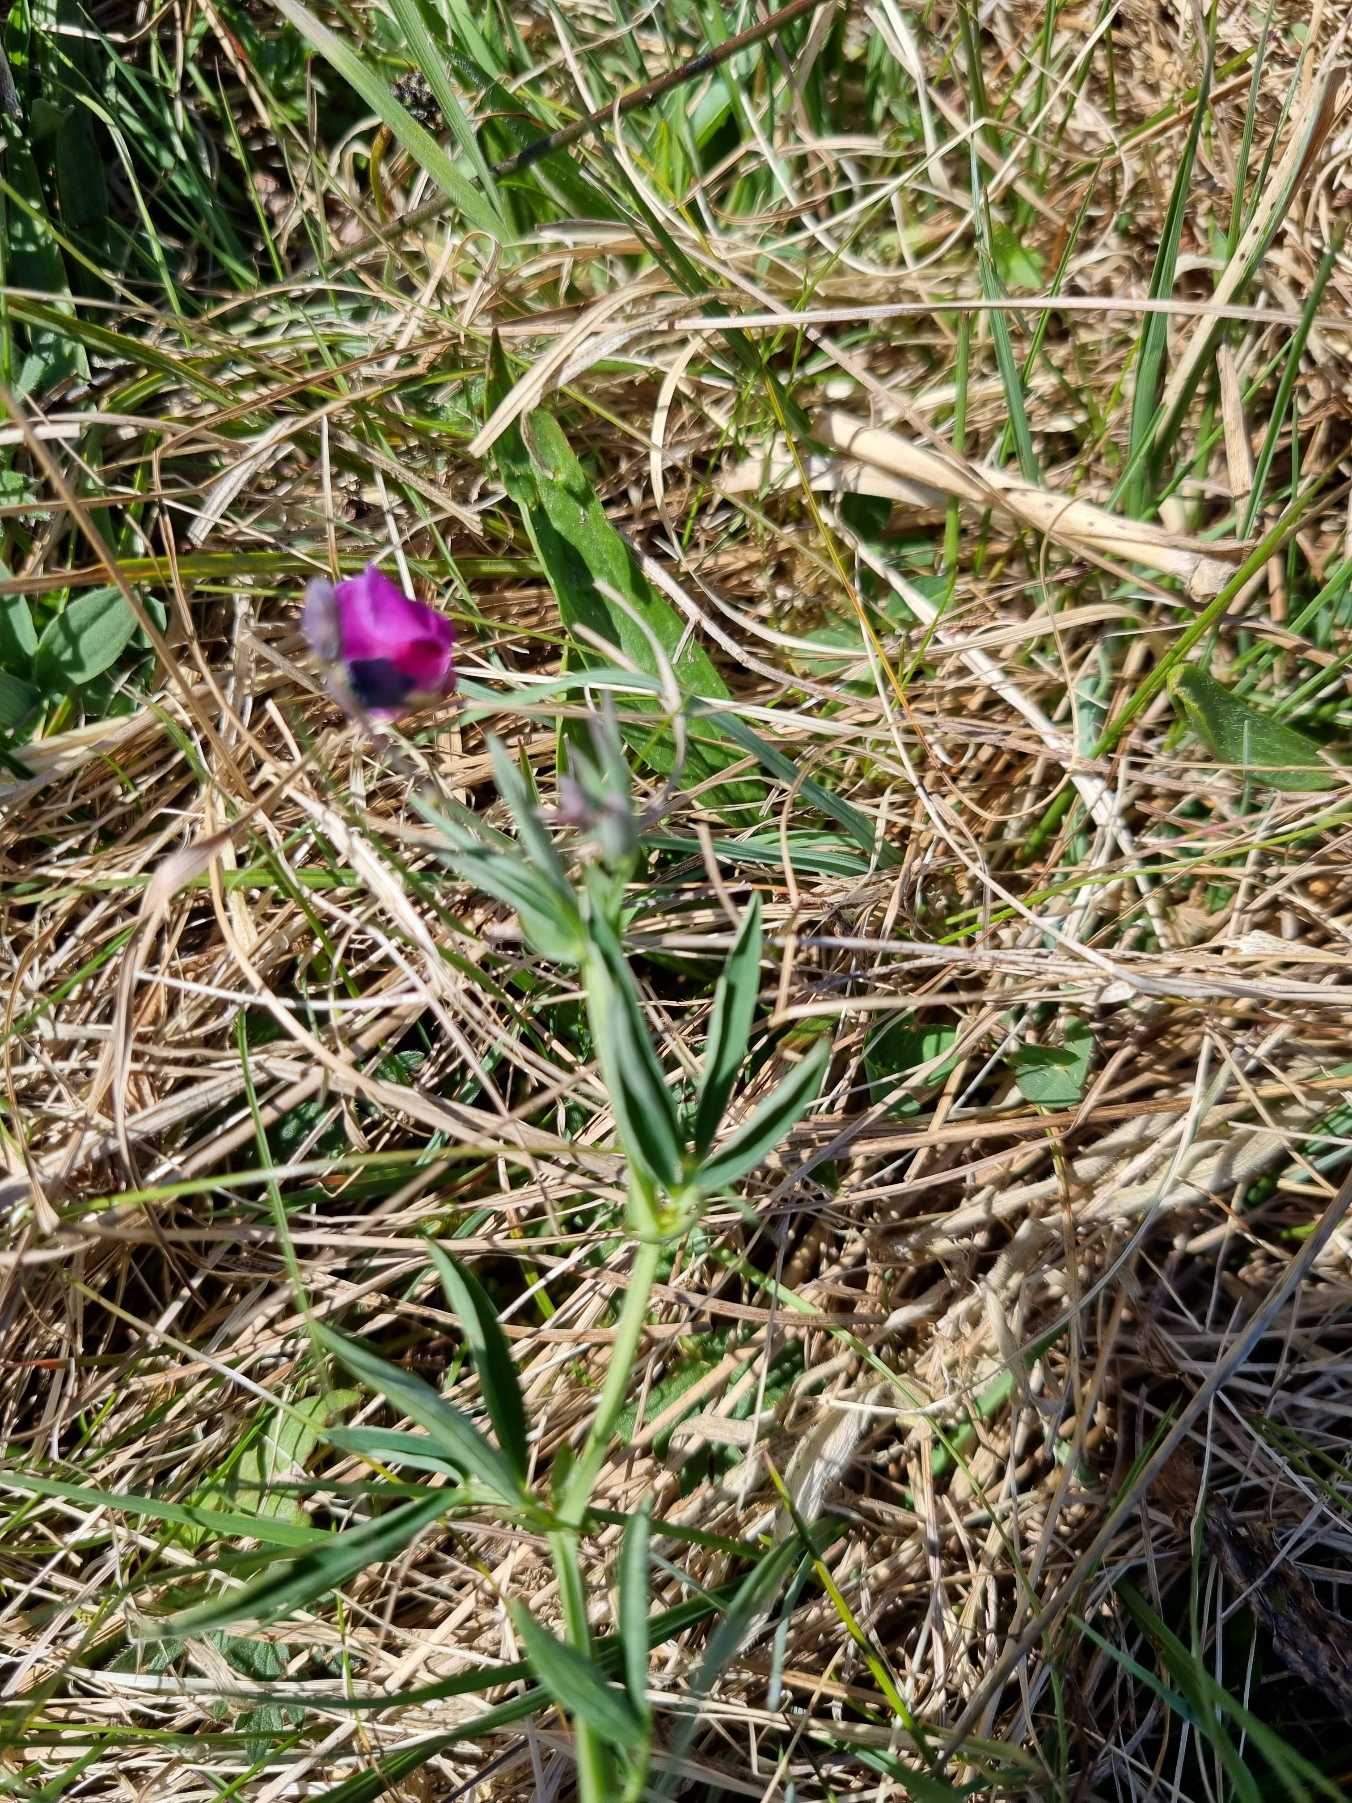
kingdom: Plantae
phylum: Tracheophyta
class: Magnoliopsida
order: Fabales
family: Fabaceae
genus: Lathyrus
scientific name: Lathyrus linifolius
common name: Krat-fladbælg
